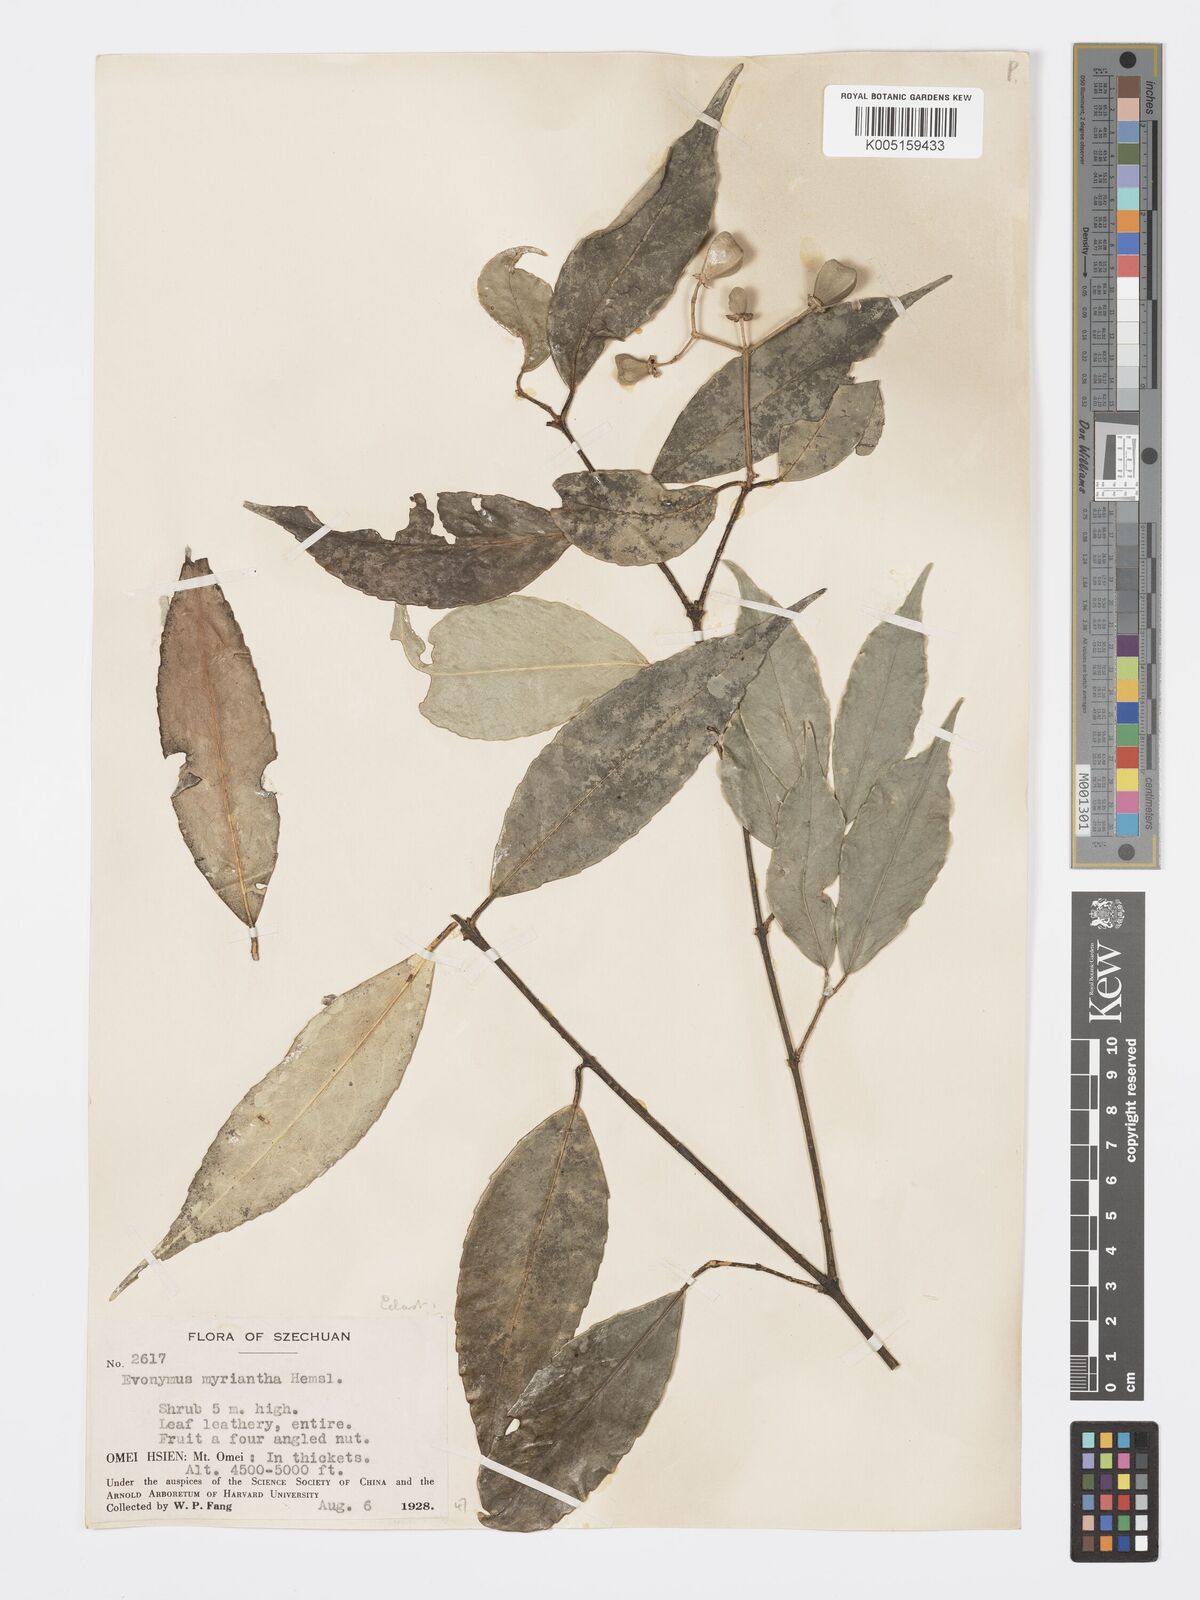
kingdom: Plantae
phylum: Tracheophyta
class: Magnoliopsida
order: Celastrales
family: Celastraceae
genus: Euonymus
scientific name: Euonymus myrianthus
